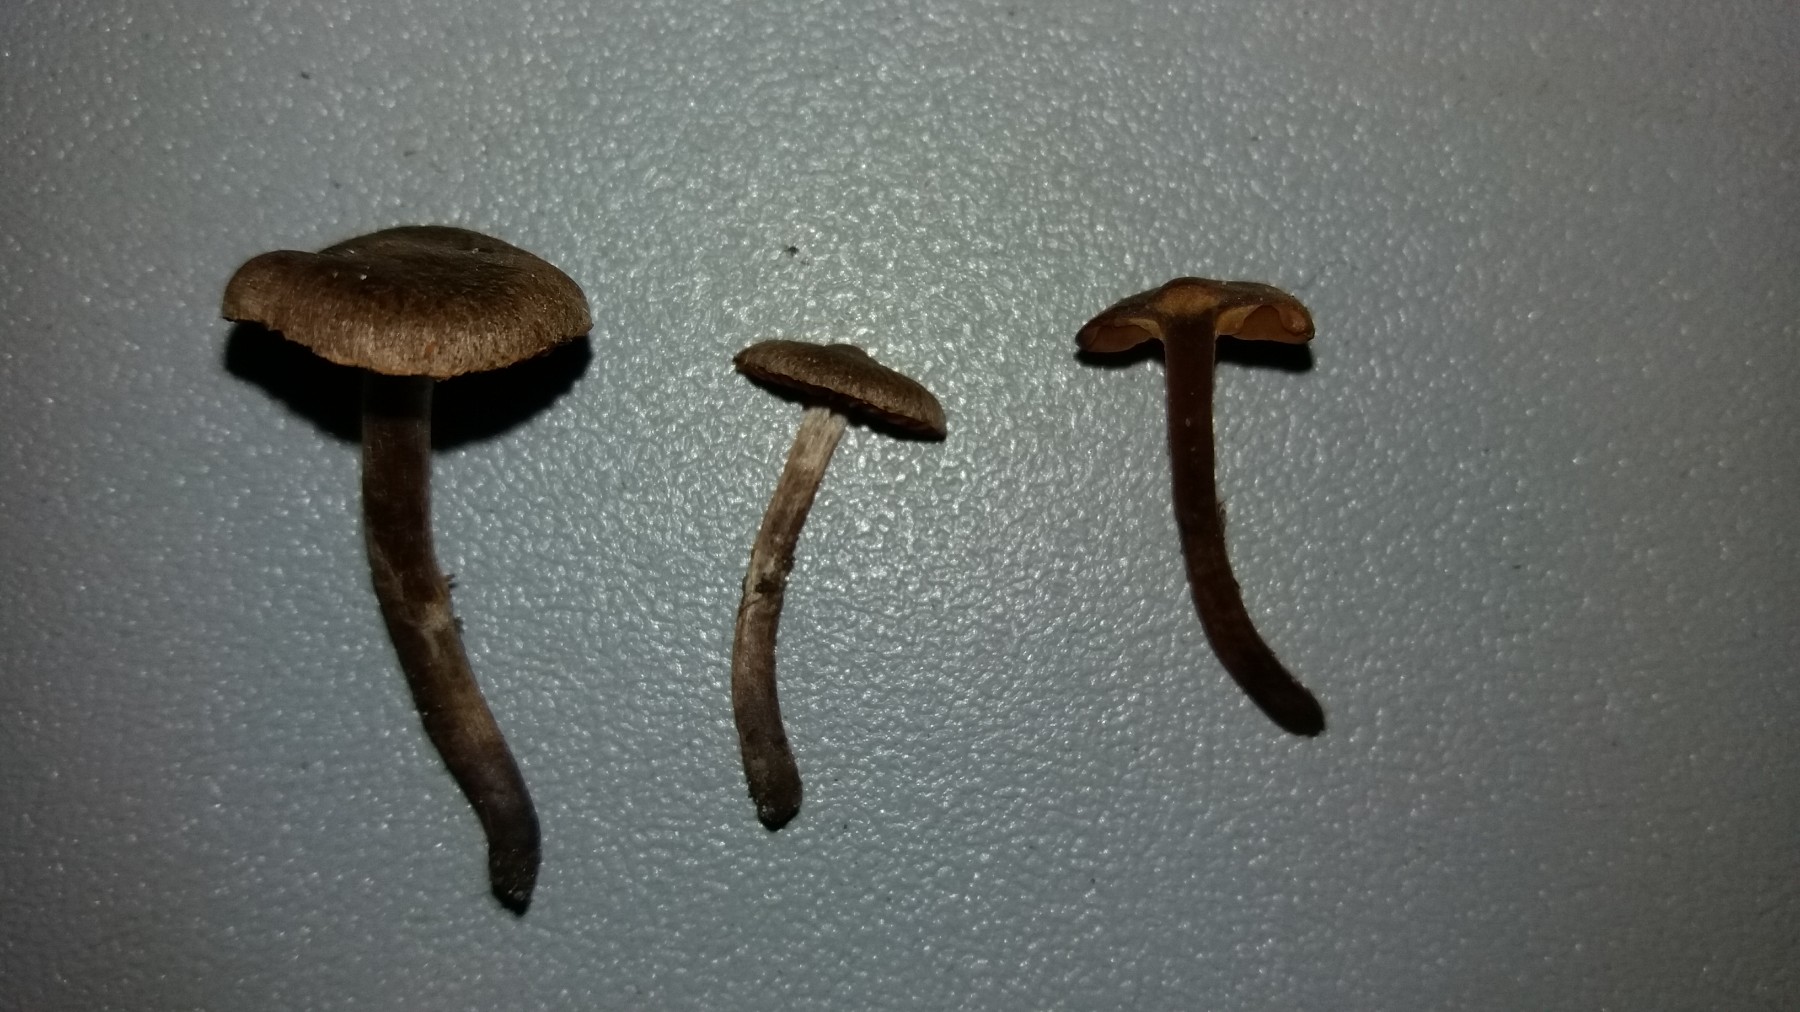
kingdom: Fungi
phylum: Basidiomycota
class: Agaricomycetes
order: Agaricales
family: Cortinariaceae
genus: Cortinarius
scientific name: Cortinarius rusticelloides
